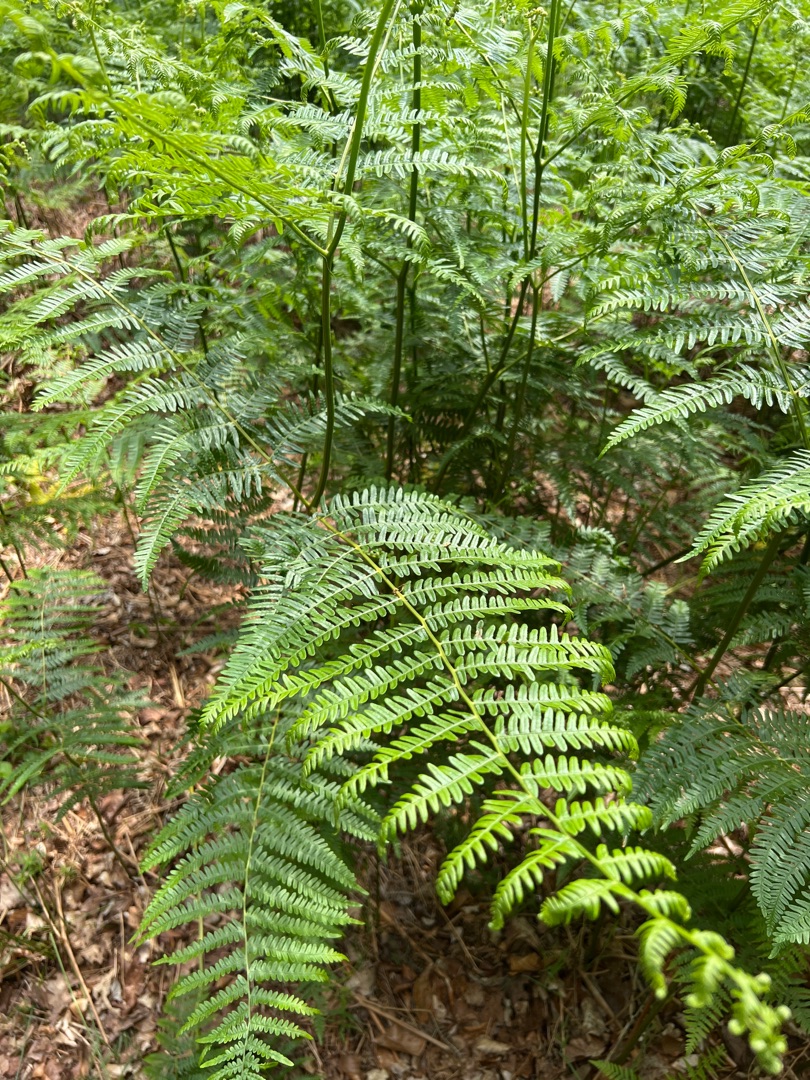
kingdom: Plantae
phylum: Tracheophyta
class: Polypodiopsida
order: Polypodiales
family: Dennstaedtiaceae
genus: Pteridium
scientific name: Pteridium aquilinum
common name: Ørnebregne
